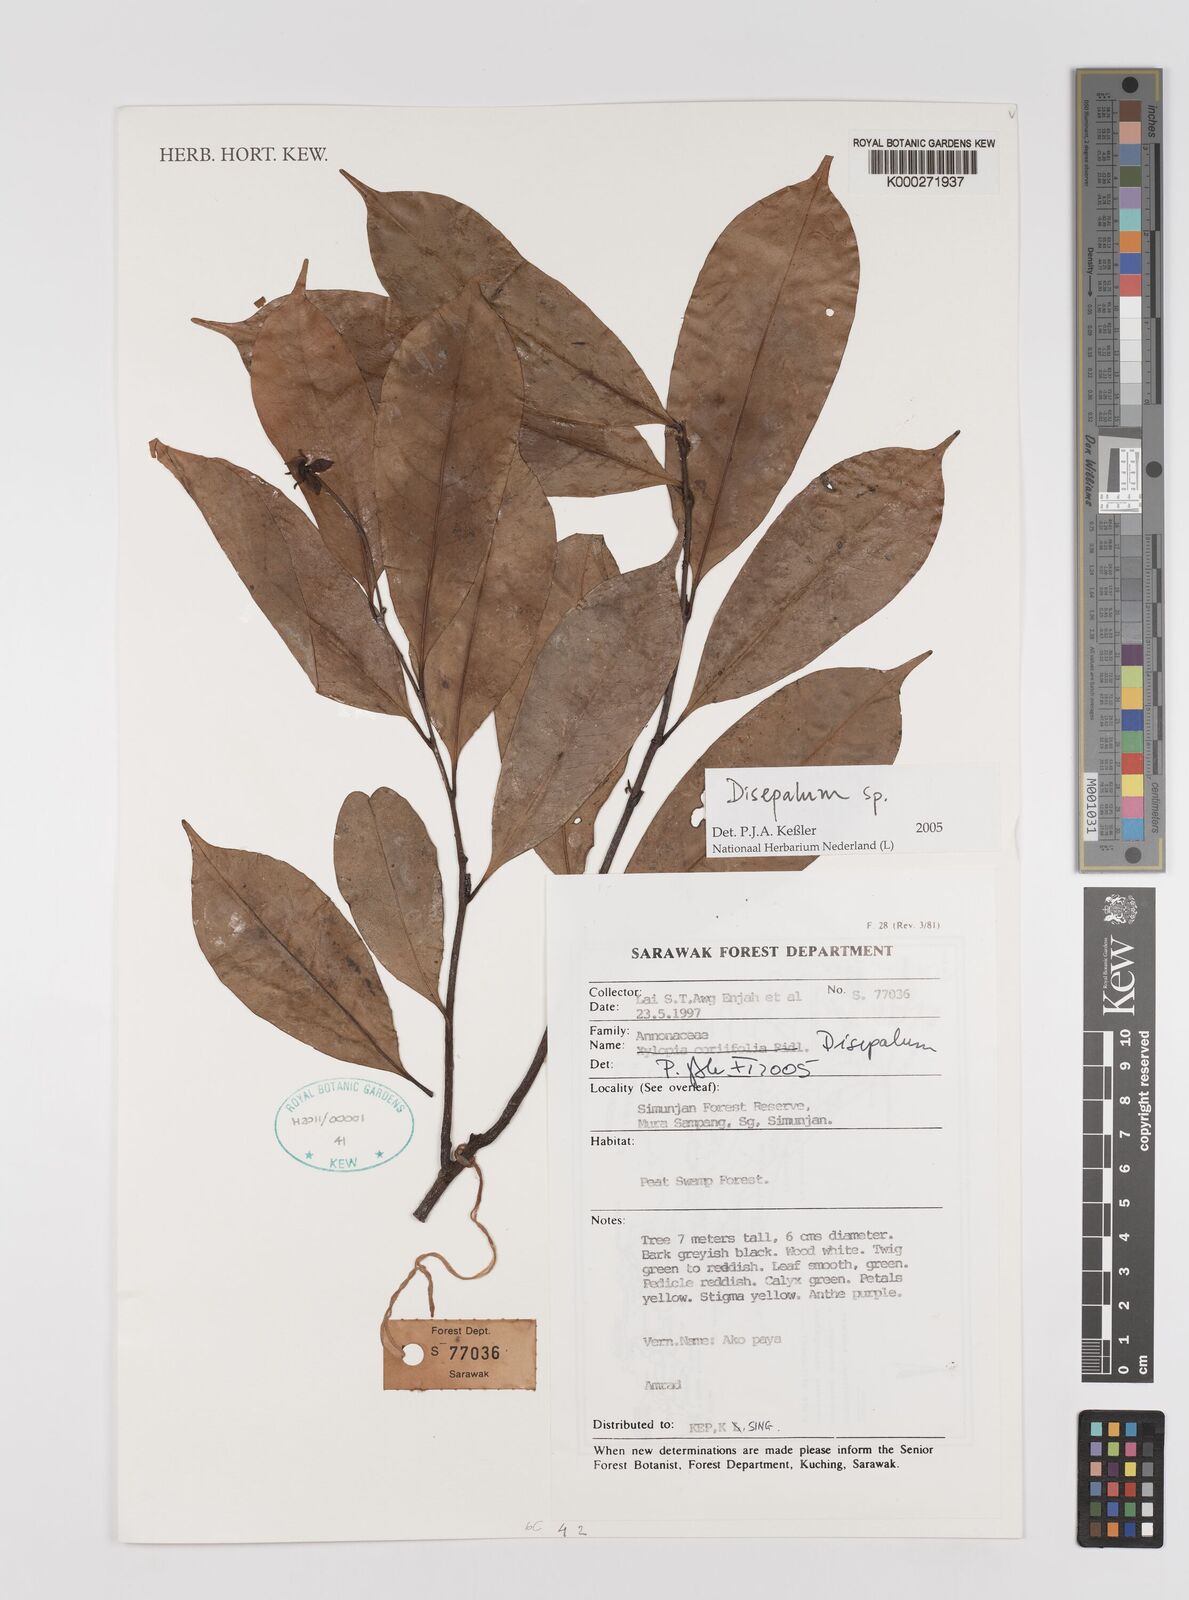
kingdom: Plantae
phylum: Tracheophyta
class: Magnoliopsida
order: Magnoliales
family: Annonaceae
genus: Disepalum
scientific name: Disepalum
